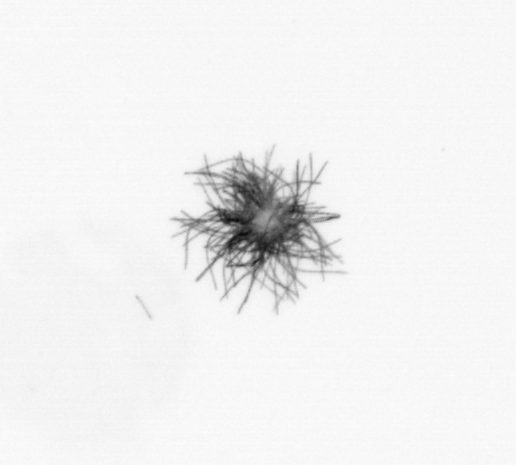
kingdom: Bacteria
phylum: Cyanobacteria
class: Cyanobacteriia
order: Cyanobacteriales
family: Microcoleaceae
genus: Trichodesmium
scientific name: Trichodesmium
